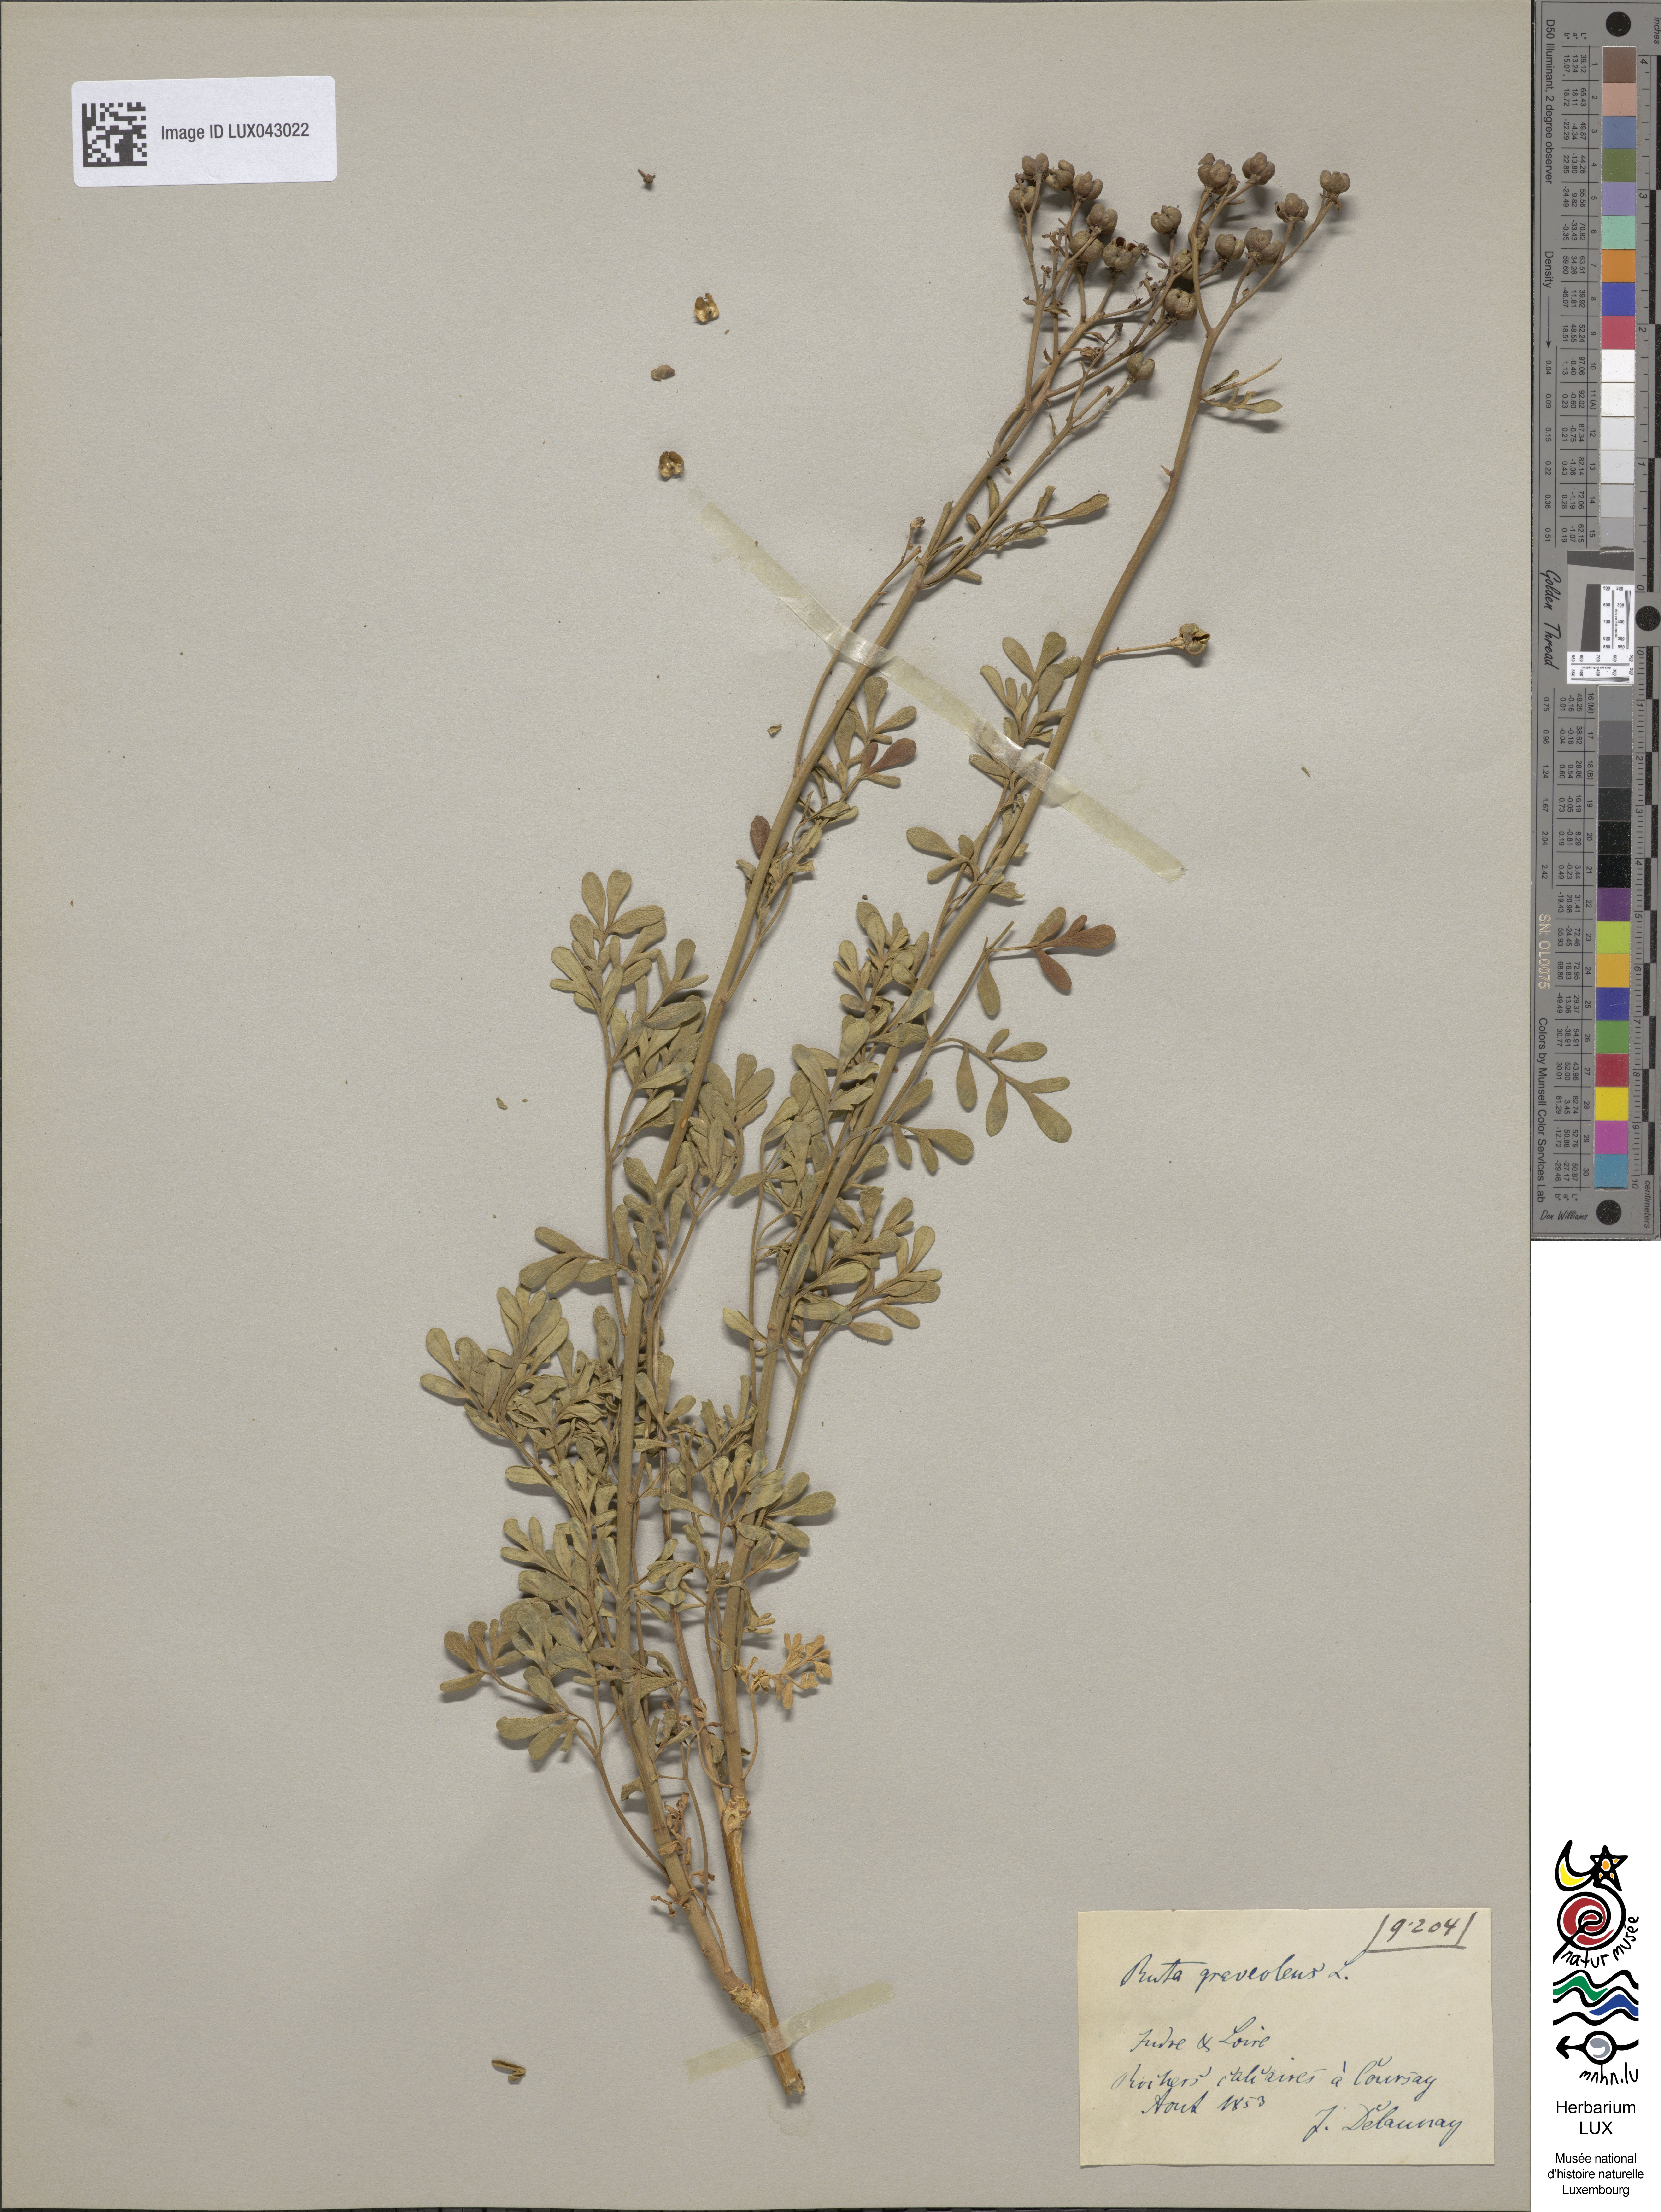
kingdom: Plantae
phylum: Tracheophyta
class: Magnoliopsida
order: Sapindales
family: Rutaceae
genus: Ruta
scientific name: Ruta graveolens
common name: Common rue
